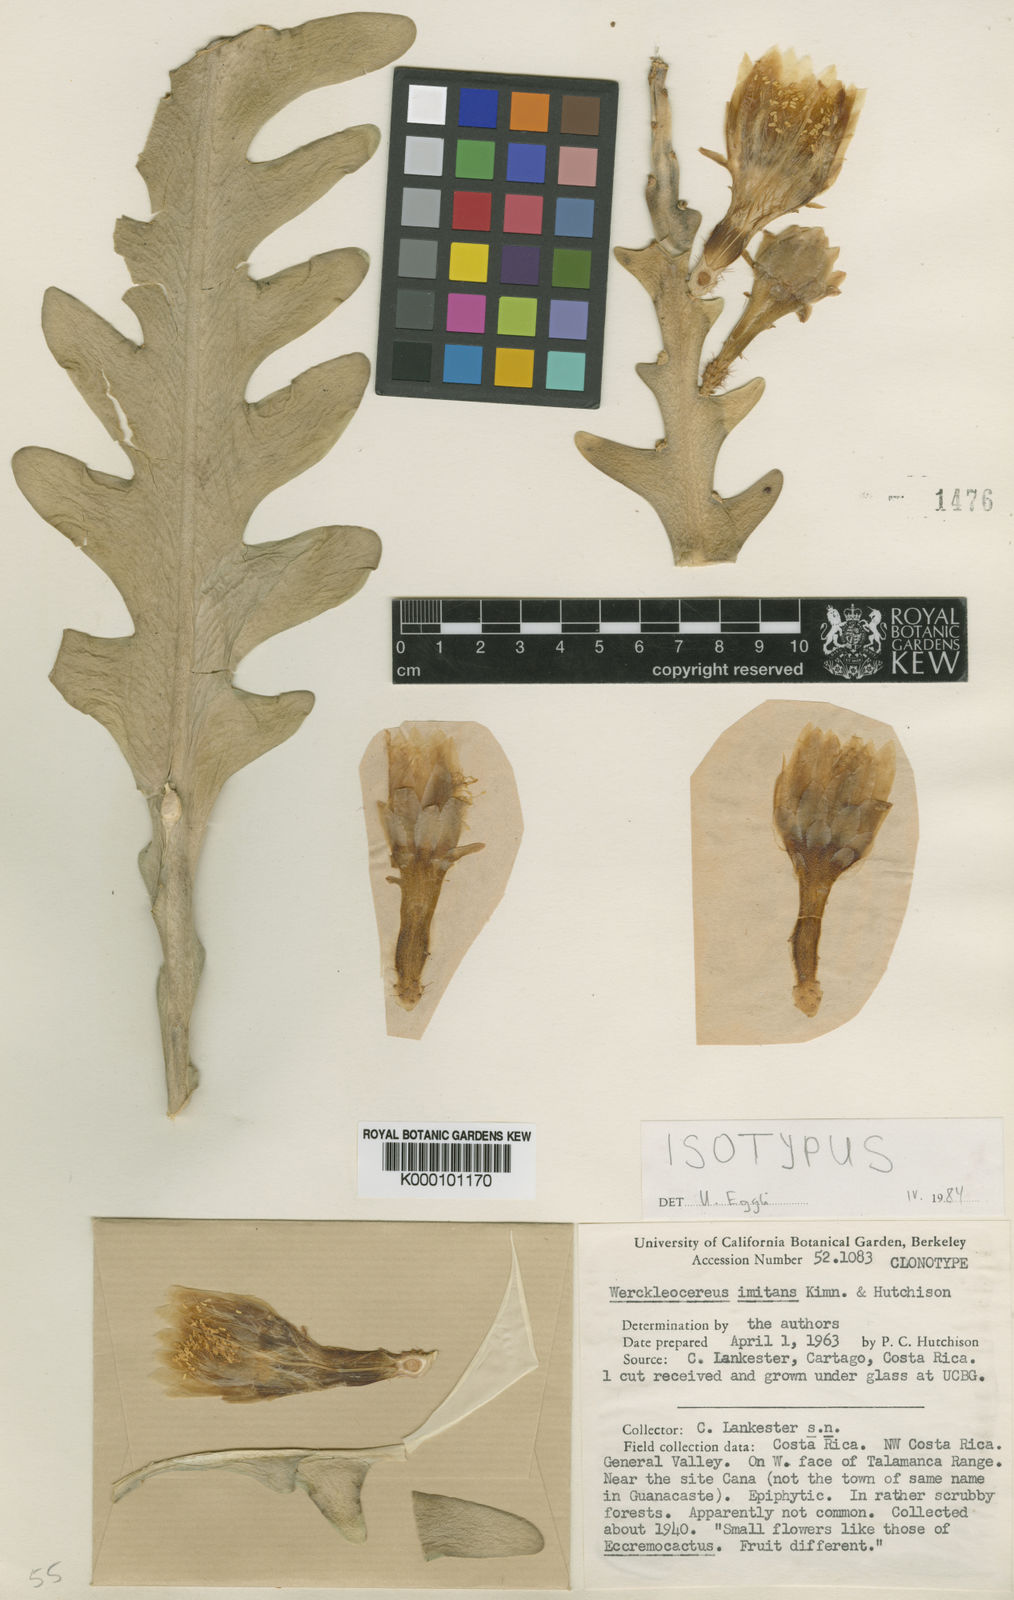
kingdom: Plantae
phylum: Tracheophyta
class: Magnoliopsida
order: Caryophyllales
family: Cactaceae
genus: Weberocereus
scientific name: Weberocereus imitans
